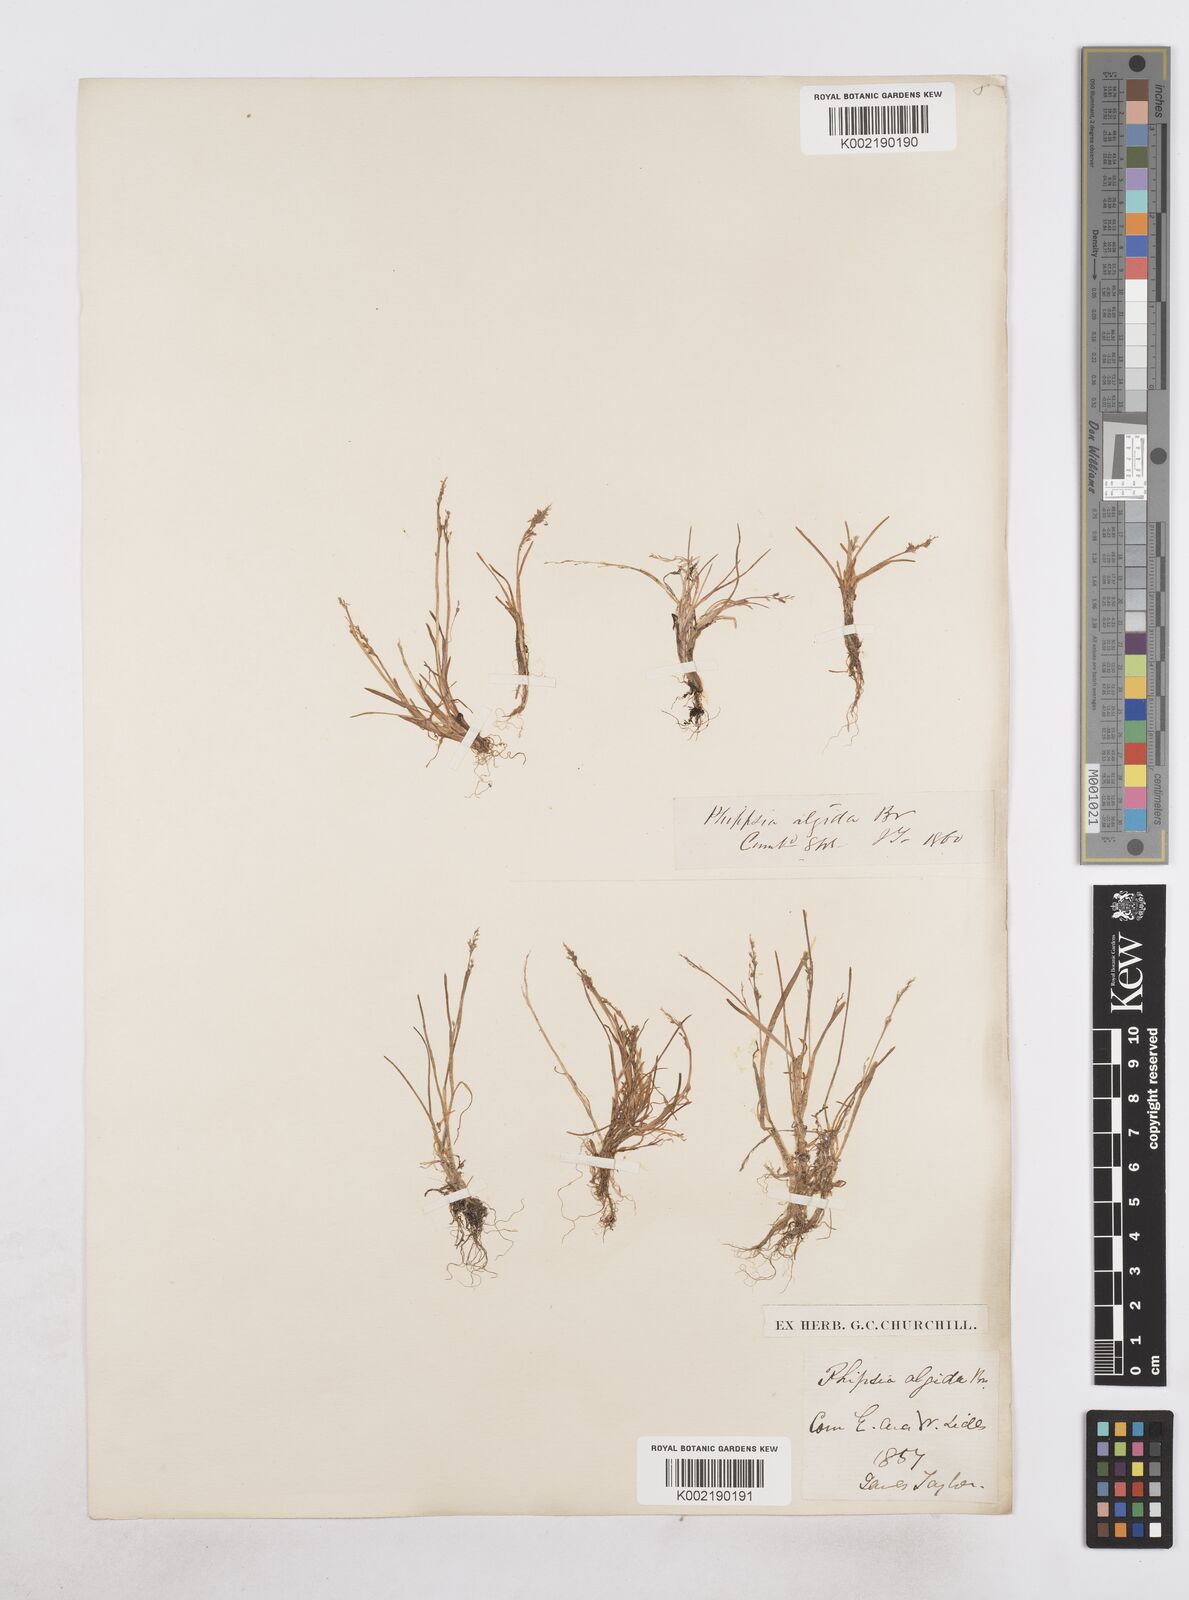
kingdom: Plantae
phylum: Tracheophyta
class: Liliopsida
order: Poales
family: Poaceae
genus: Phippsia
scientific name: Phippsia algida
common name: Ice grass
